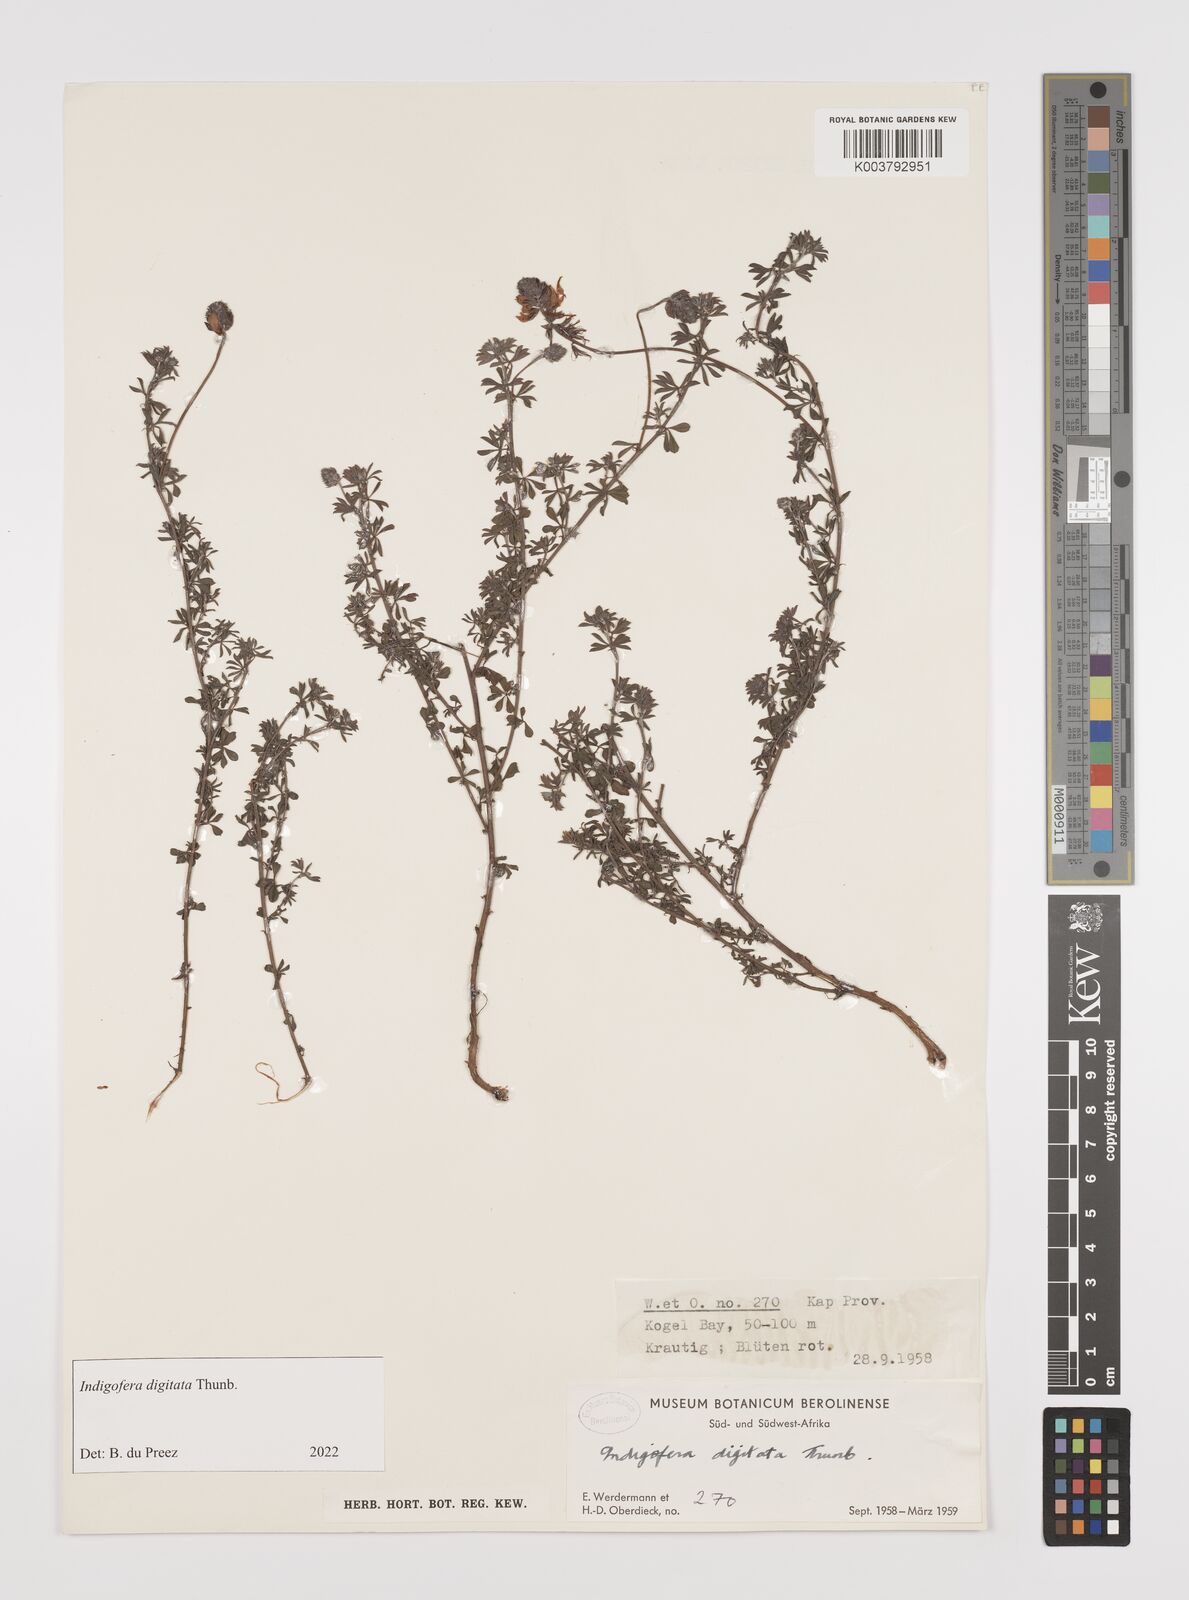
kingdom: Plantae
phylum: Tracheophyta
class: Magnoliopsida
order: Fabales
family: Fabaceae
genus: Indigofera
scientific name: Indigofera
